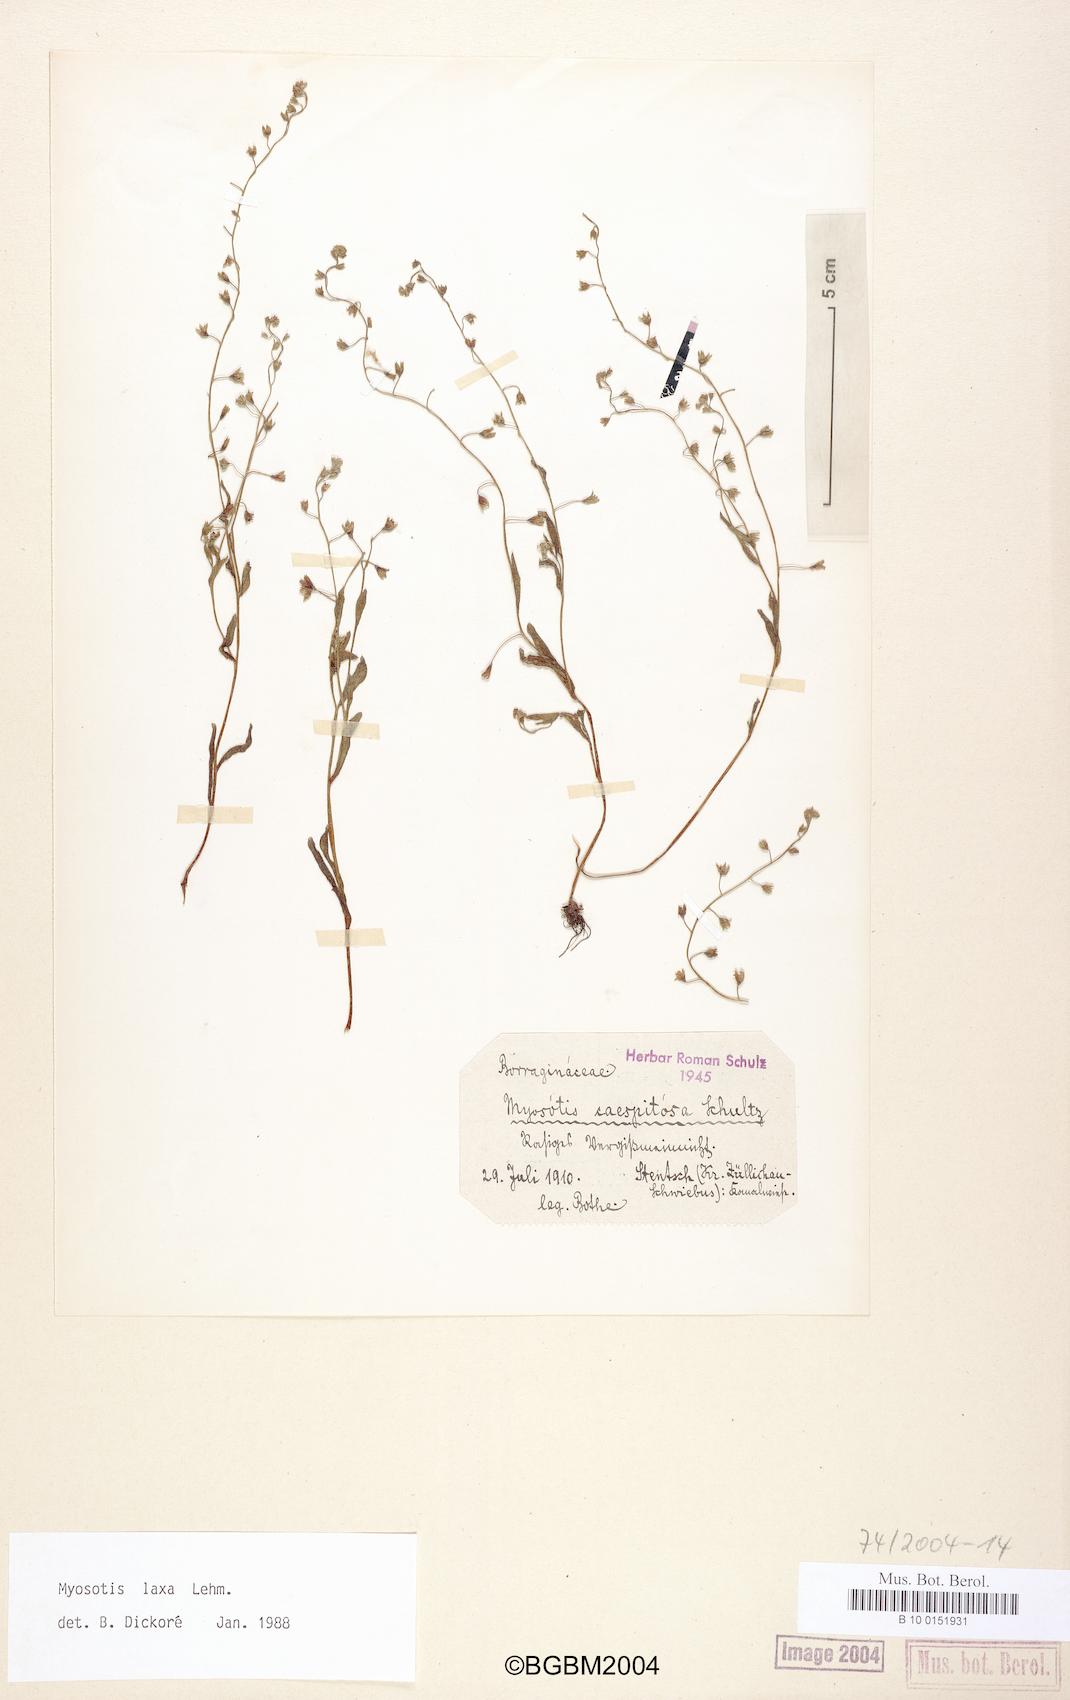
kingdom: Plantae
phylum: Tracheophyta
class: Magnoliopsida
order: Boraginales
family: Boraginaceae
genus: Myosotis
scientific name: Myosotis laxa
